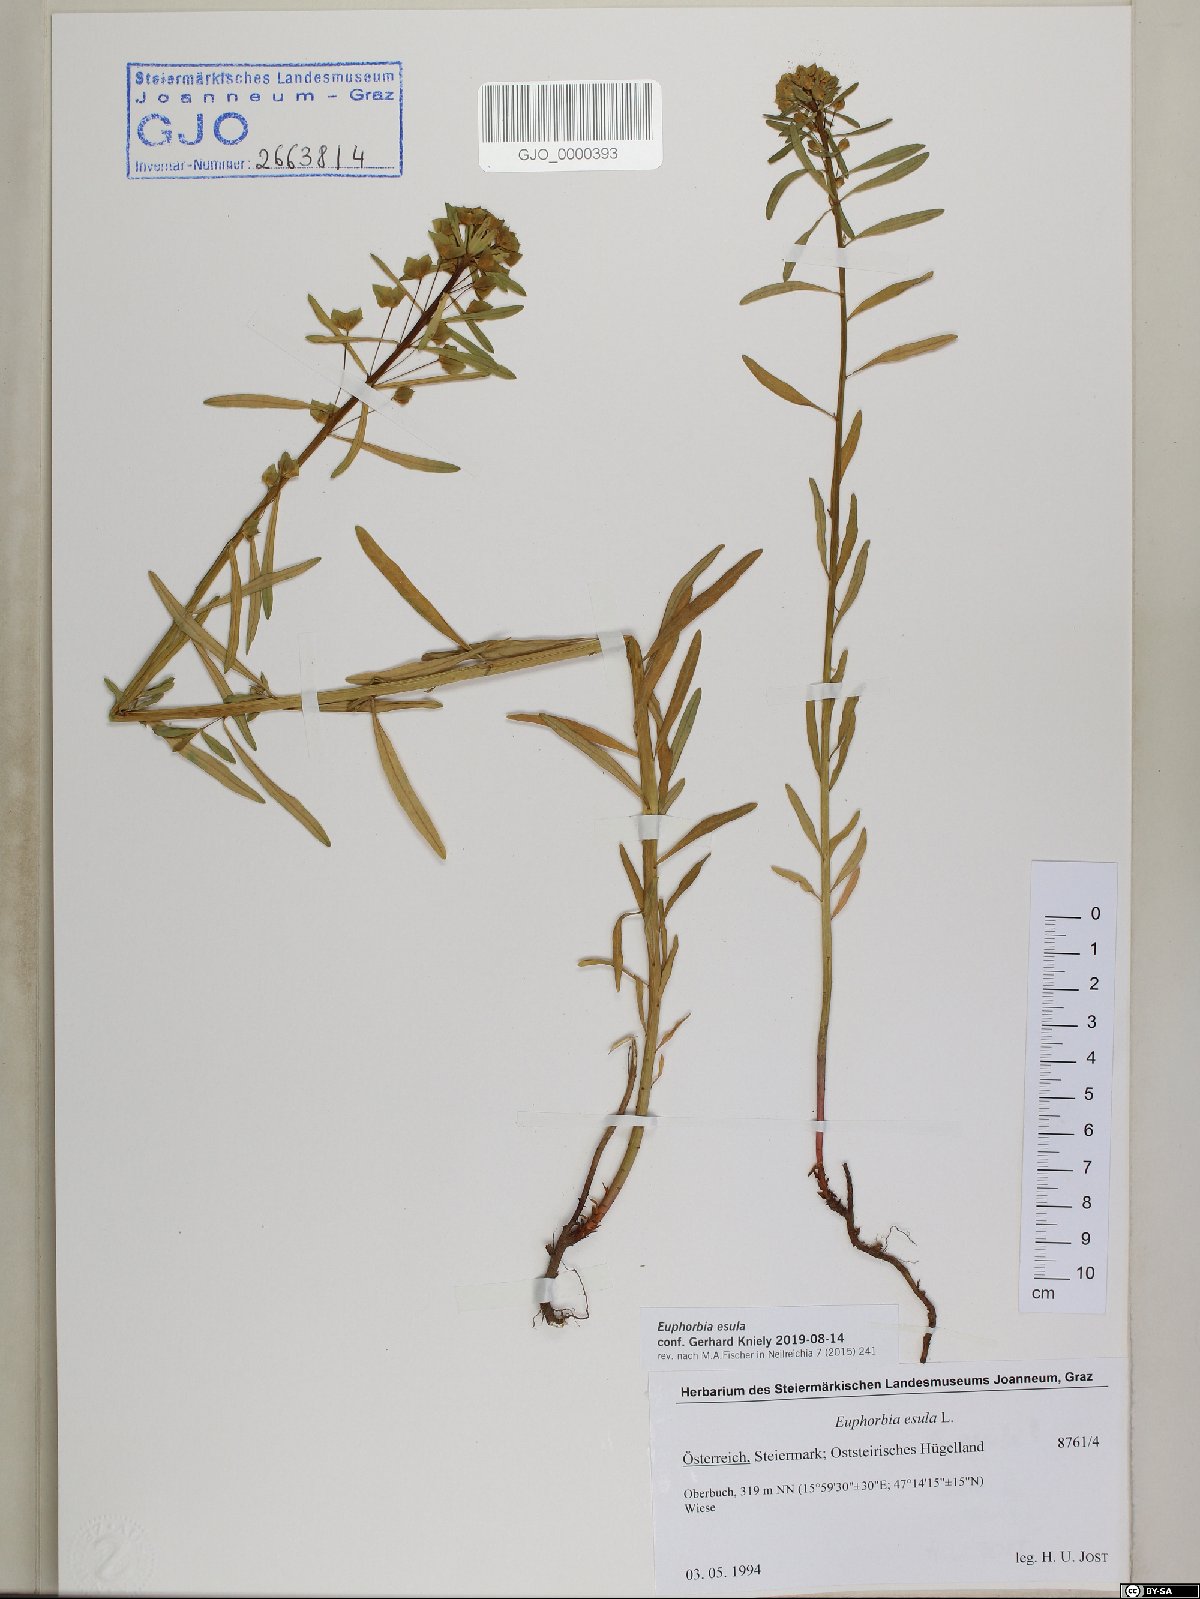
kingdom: Plantae
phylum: Tracheophyta
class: Magnoliopsida
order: Malpighiales
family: Euphorbiaceae
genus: Euphorbia
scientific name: Euphorbia esula
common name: Leafy spurge
